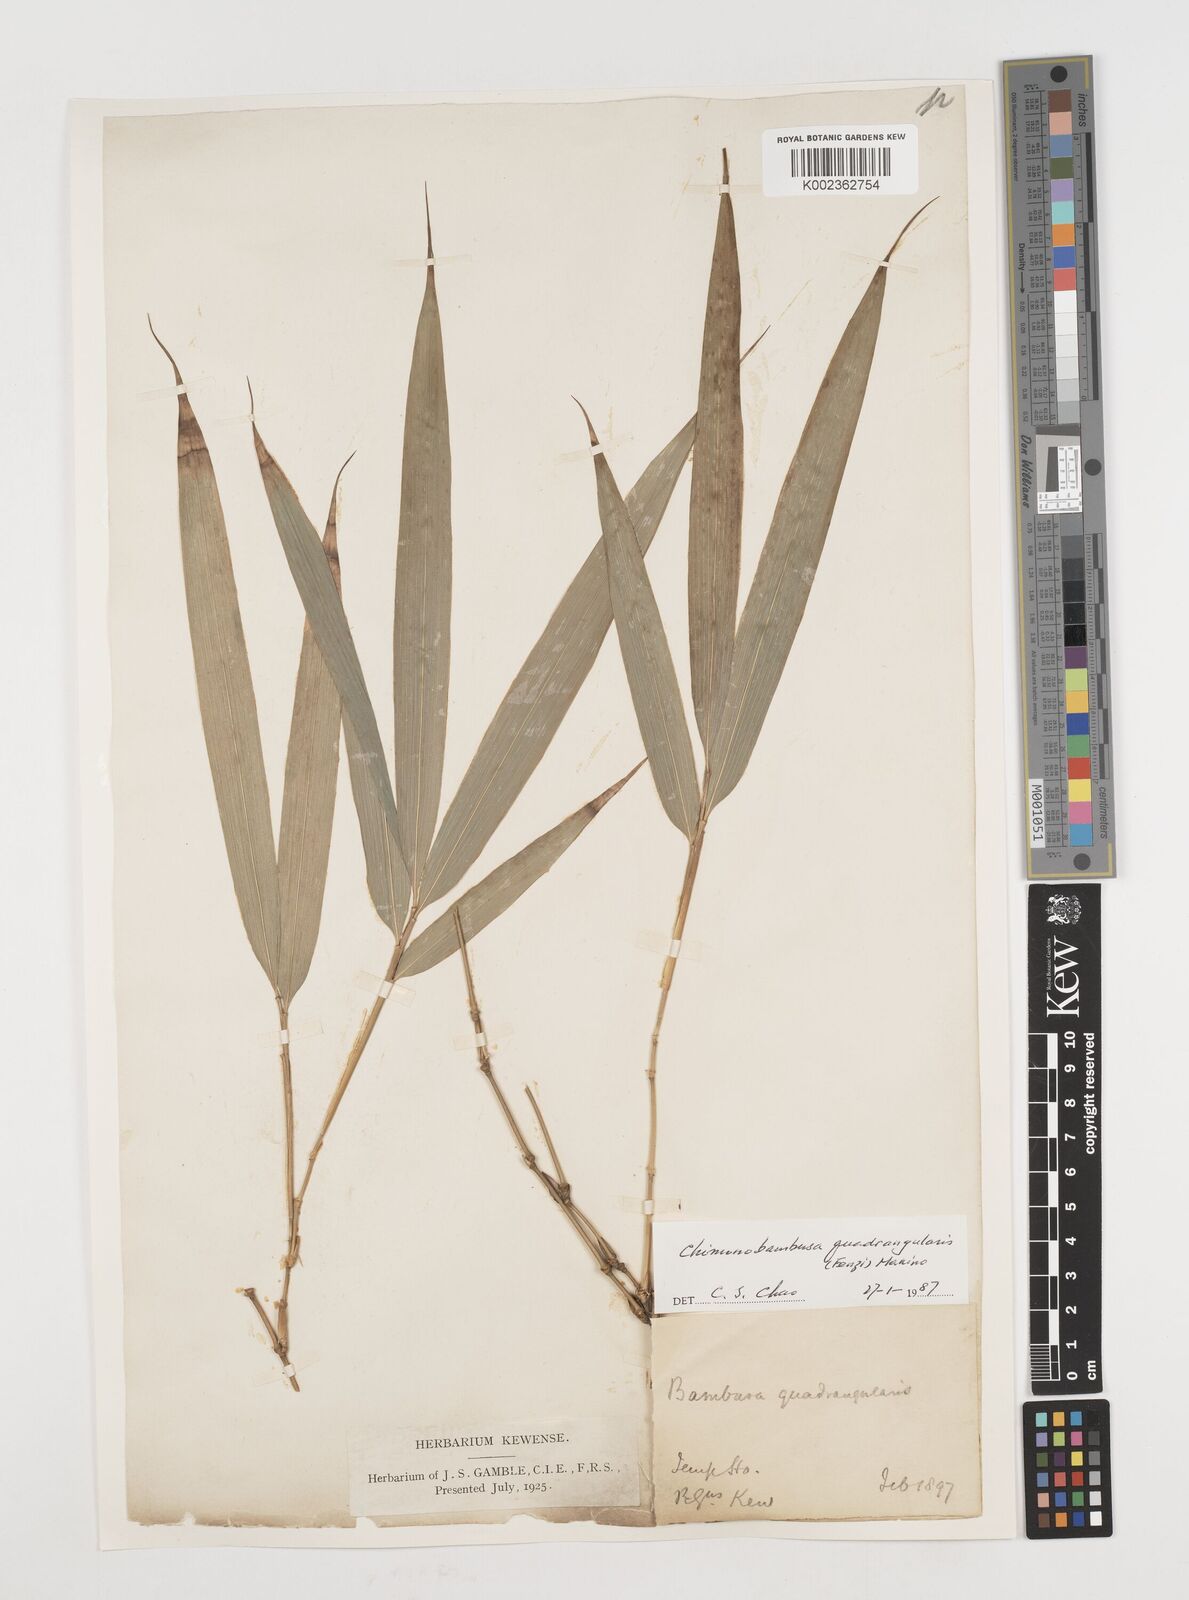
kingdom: Plantae
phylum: Tracheophyta
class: Liliopsida
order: Poales
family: Poaceae
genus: Chimonobambusa
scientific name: Chimonobambusa quadrangularis
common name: Square-stemmed bamboo
